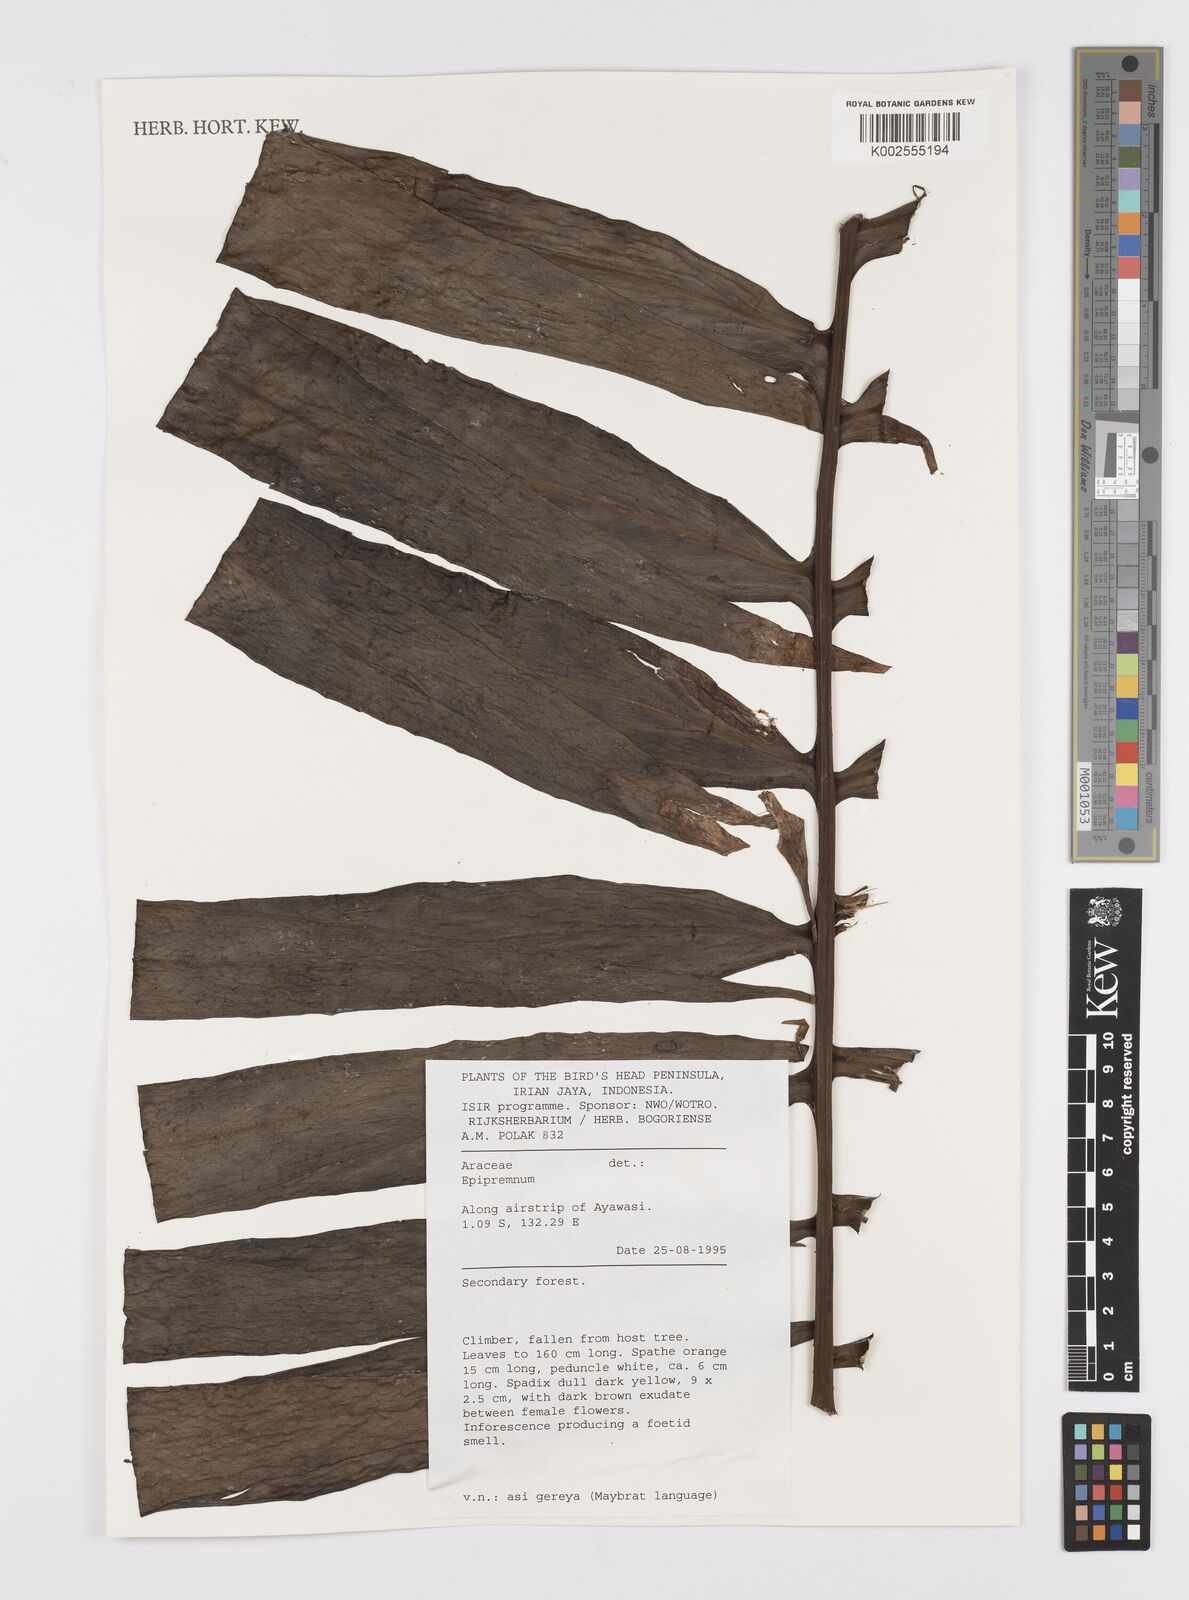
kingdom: Plantae
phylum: Tracheophyta
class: Liliopsida
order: Alismatales
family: Araceae
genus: Amydrium
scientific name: Amydrium zippelianum
